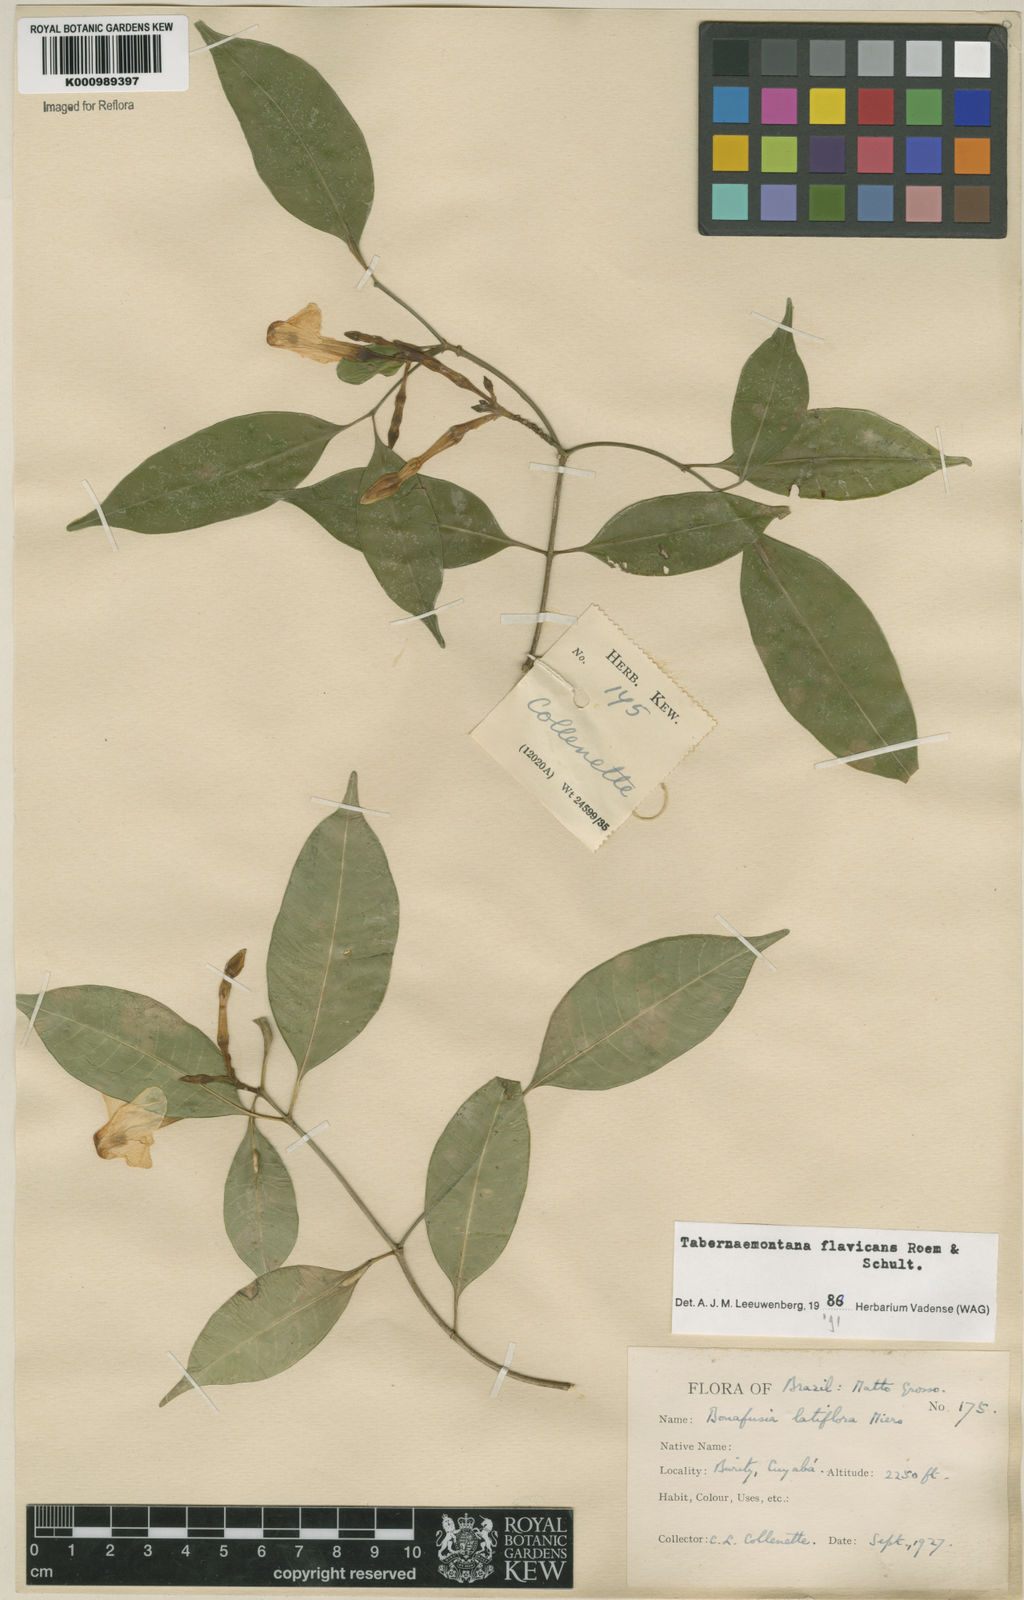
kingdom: Plantae
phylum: Tracheophyta
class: Magnoliopsida
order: Gentianales
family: Apocynaceae
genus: Tabernaemontana
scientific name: Tabernaemontana flavicans
